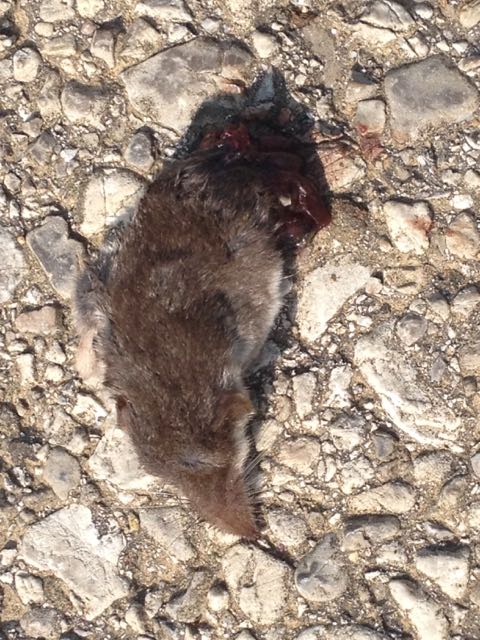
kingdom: Animalia
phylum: Chordata
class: Mammalia
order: Soricomorpha
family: Soricidae
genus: Crocidura
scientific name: Crocidura leucodon
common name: Bicolored shrew
